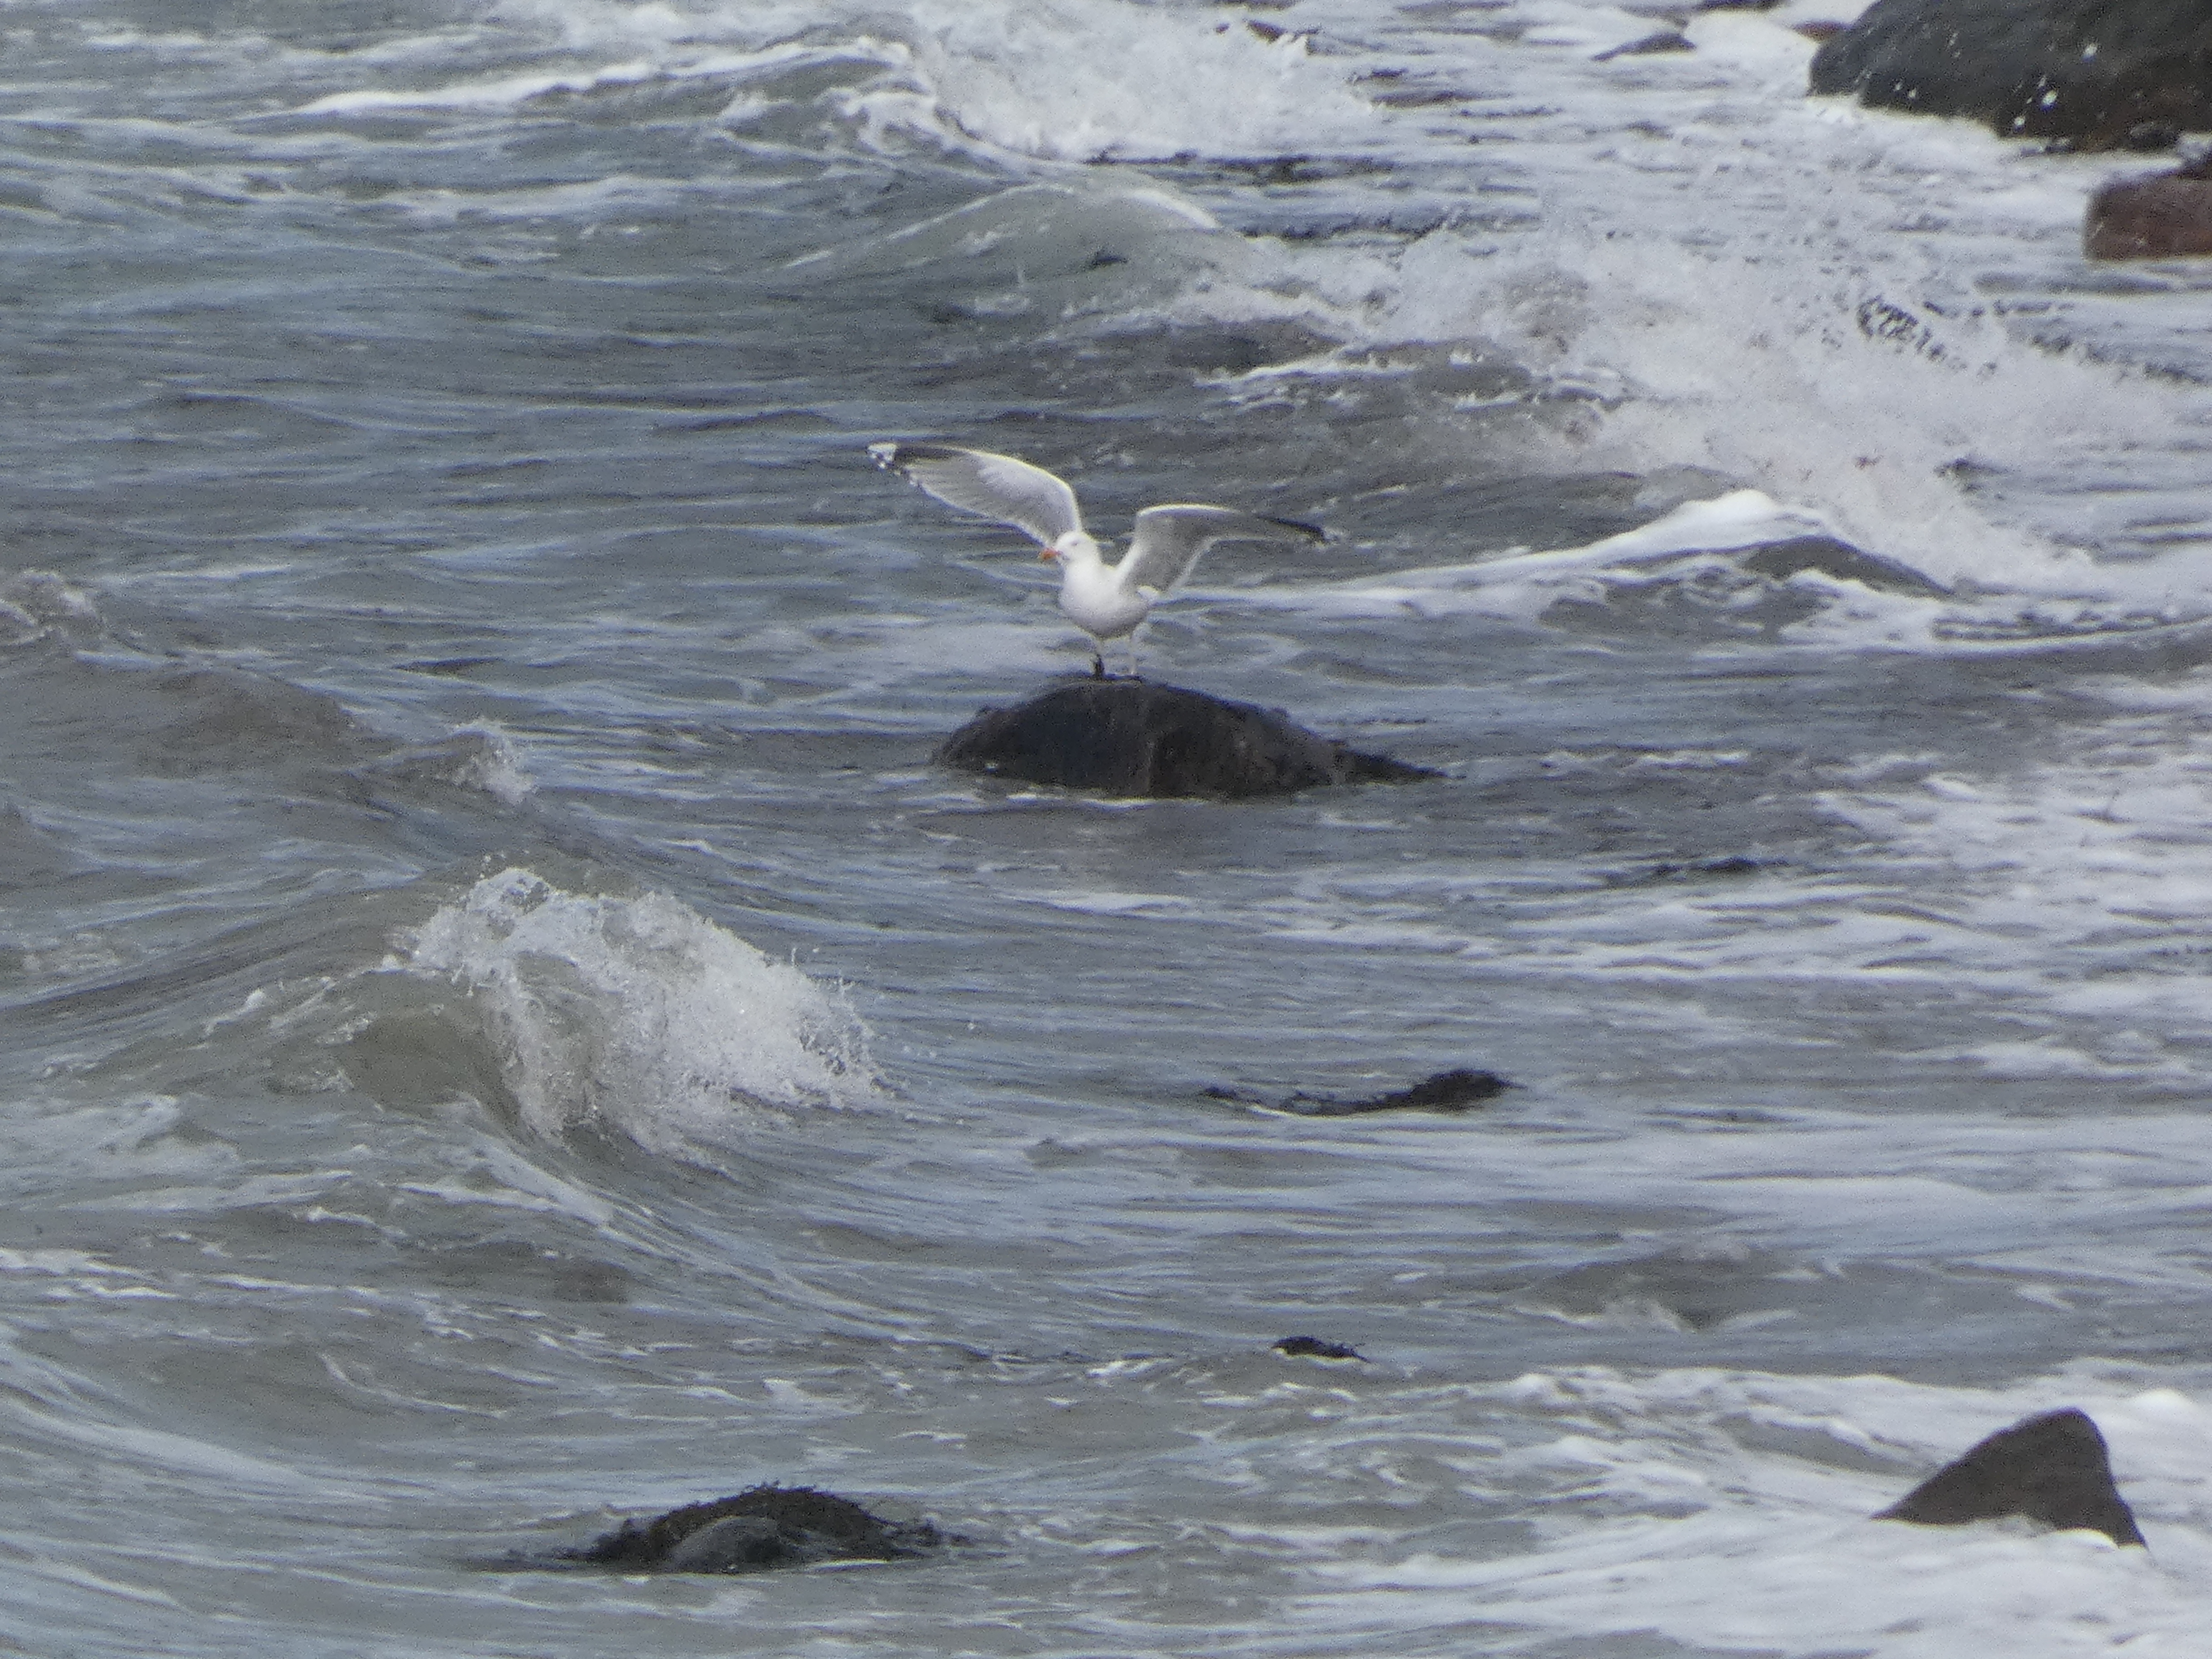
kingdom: Animalia
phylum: Chordata
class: Aves
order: Charadriiformes
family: Laridae
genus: Larus
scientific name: Larus argentatus
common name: Sølvmåge
